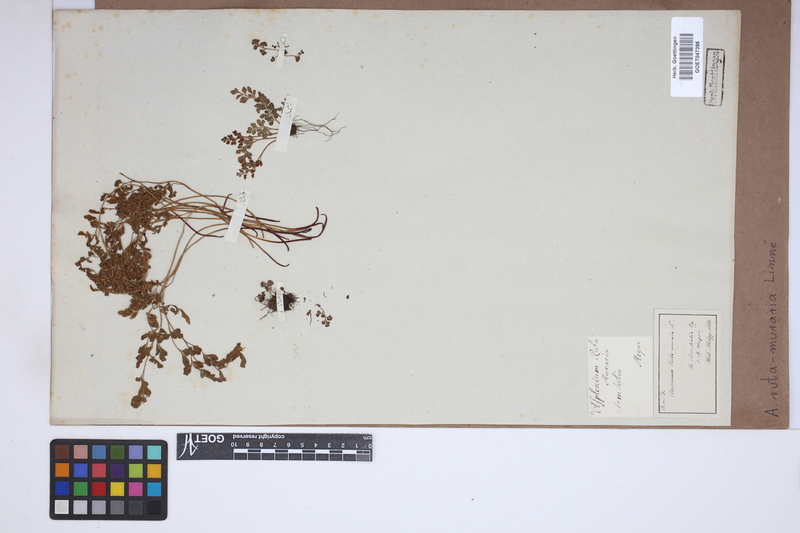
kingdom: Plantae
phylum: Tracheophyta
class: Polypodiopsida
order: Polypodiales
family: Aspleniaceae
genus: Asplenium
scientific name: Asplenium ruta-muraria
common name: Wall-rue
